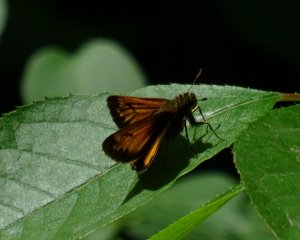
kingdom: Animalia
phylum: Arthropoda
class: Insecta
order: Lepidoptera
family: Hesperiidae
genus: Lon
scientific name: Lon hobomok
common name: Hobomok Skipper
